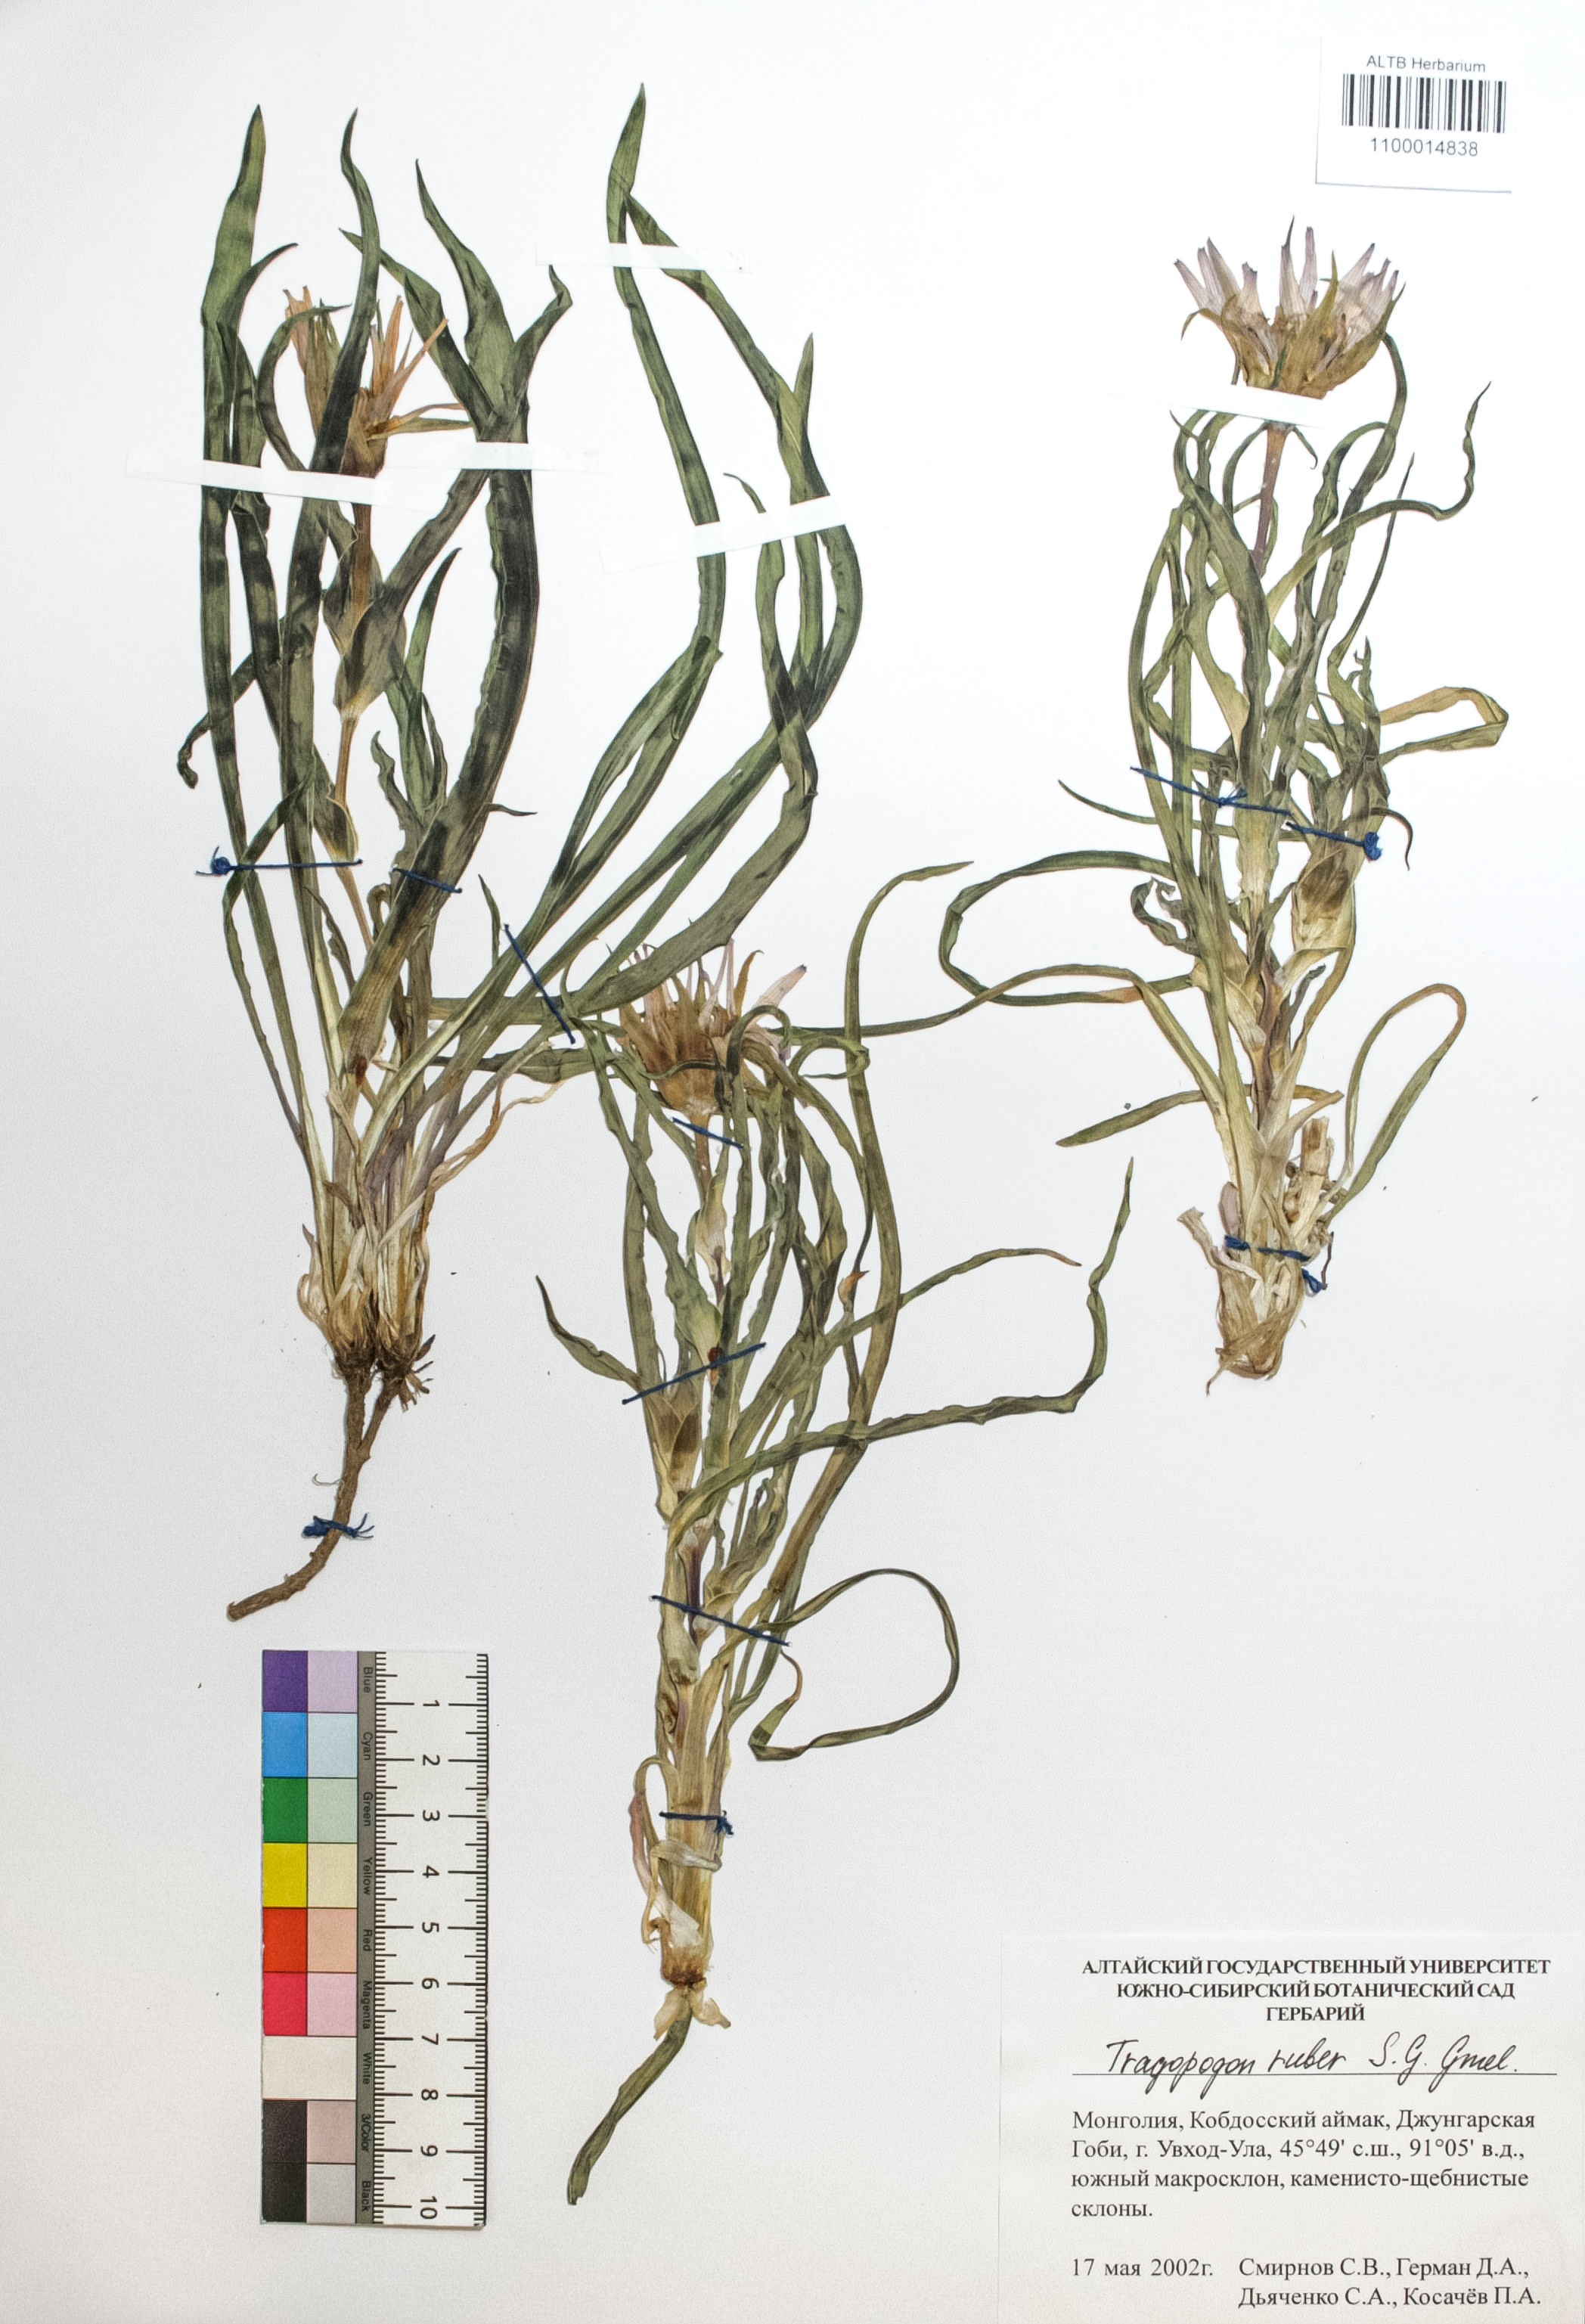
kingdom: Plantae
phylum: Tracheophyta
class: Magnoliopsida
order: Asterales
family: Asteraceae
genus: Tragopogon
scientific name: Tragopogon ruber
